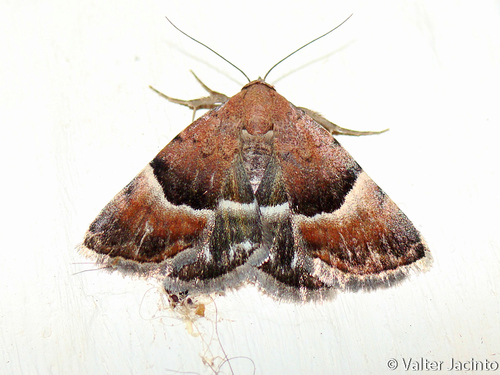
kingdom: Animalia
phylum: Arthropoda
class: Insecta
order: Lepidoptera
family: Noctuidae
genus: Odice
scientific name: Odice pergrata
